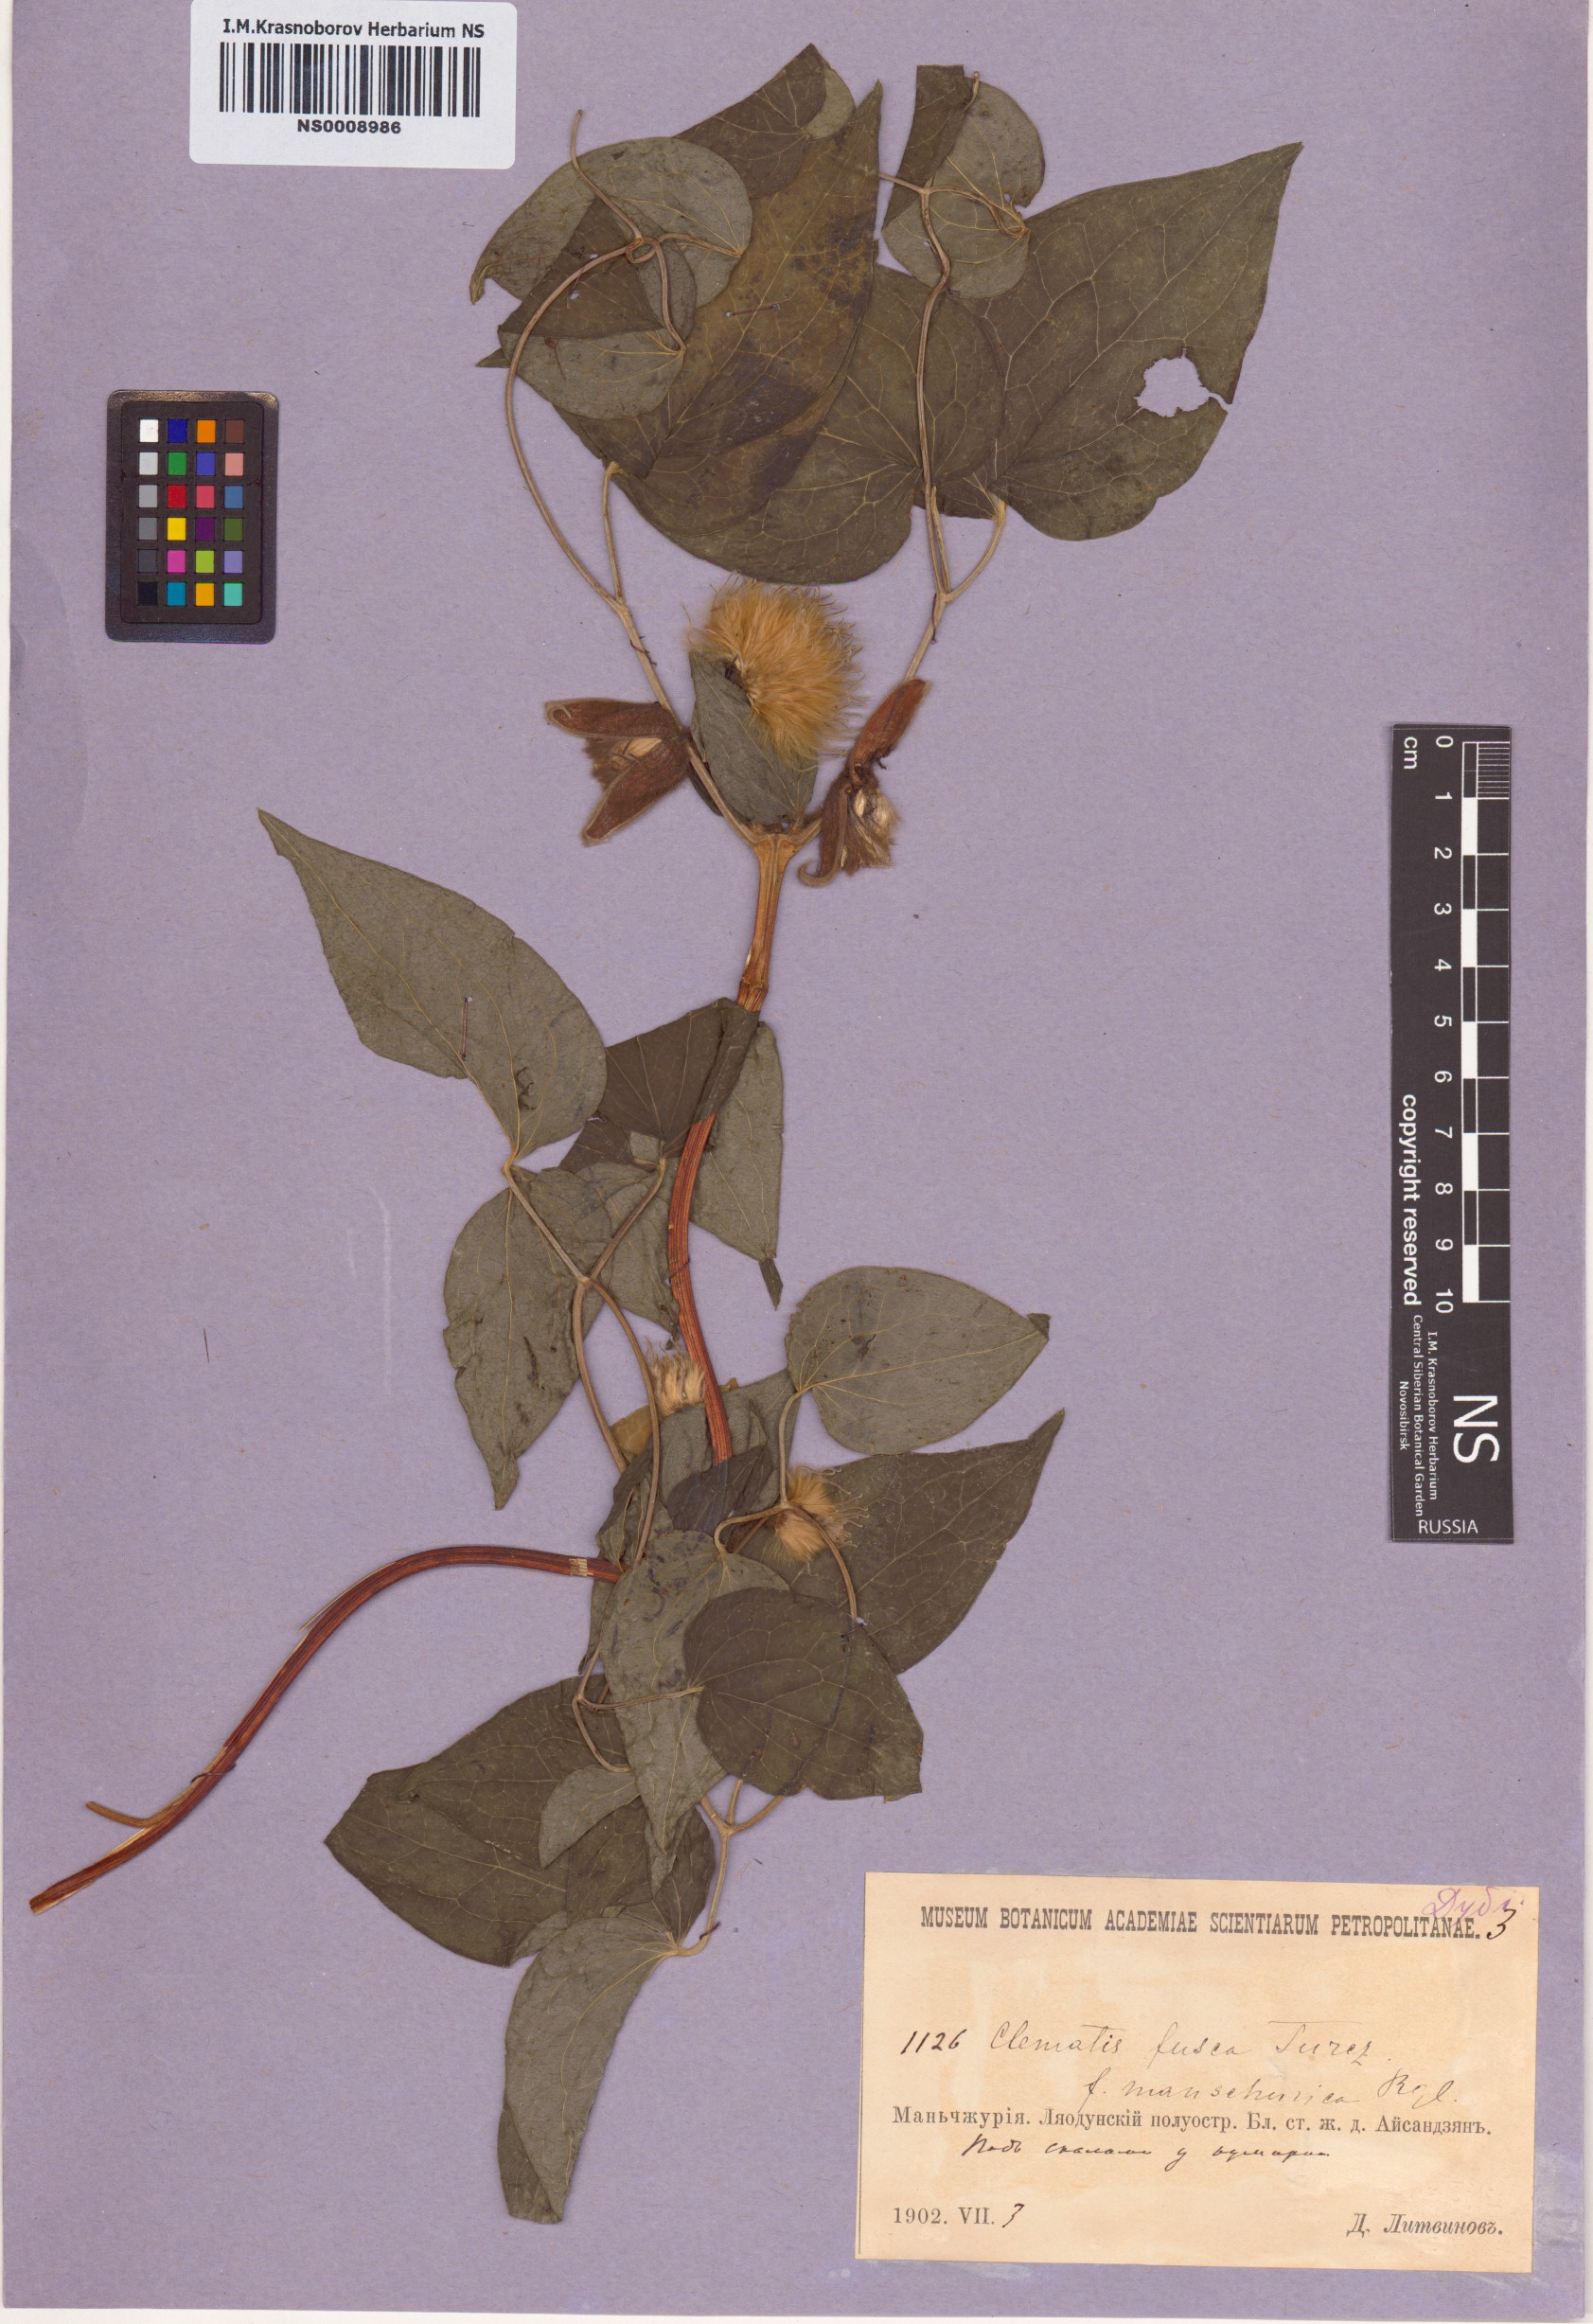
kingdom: Plantae
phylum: Tracheophyta
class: Magnoliopsida
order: Ranunculales
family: Ranunculaceae
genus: Clematis
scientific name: Clematis fusca
